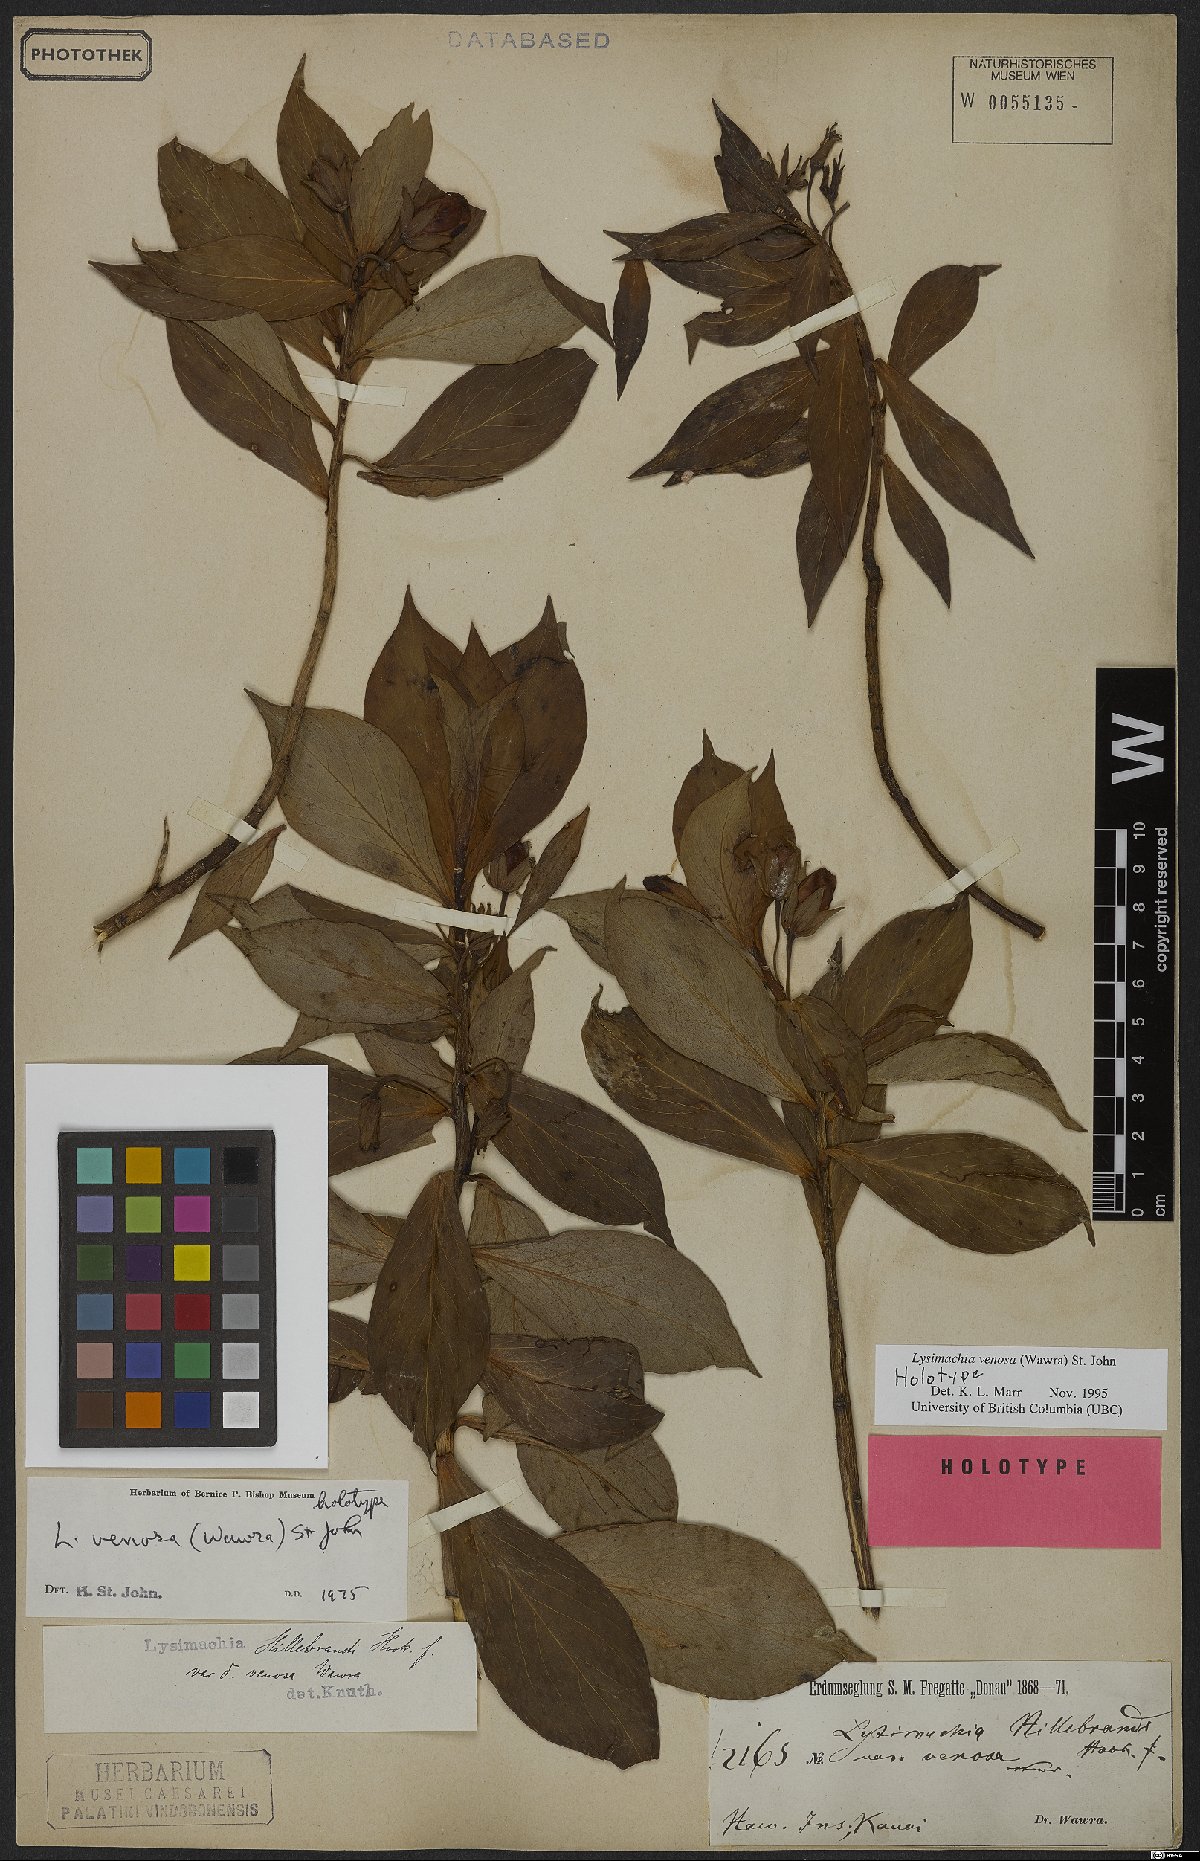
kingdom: Plantae
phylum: Tracheophyta
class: Magnoliopsida
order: Ericales
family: Primulaceae
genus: Lysimachia
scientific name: Lysimachia venosa
